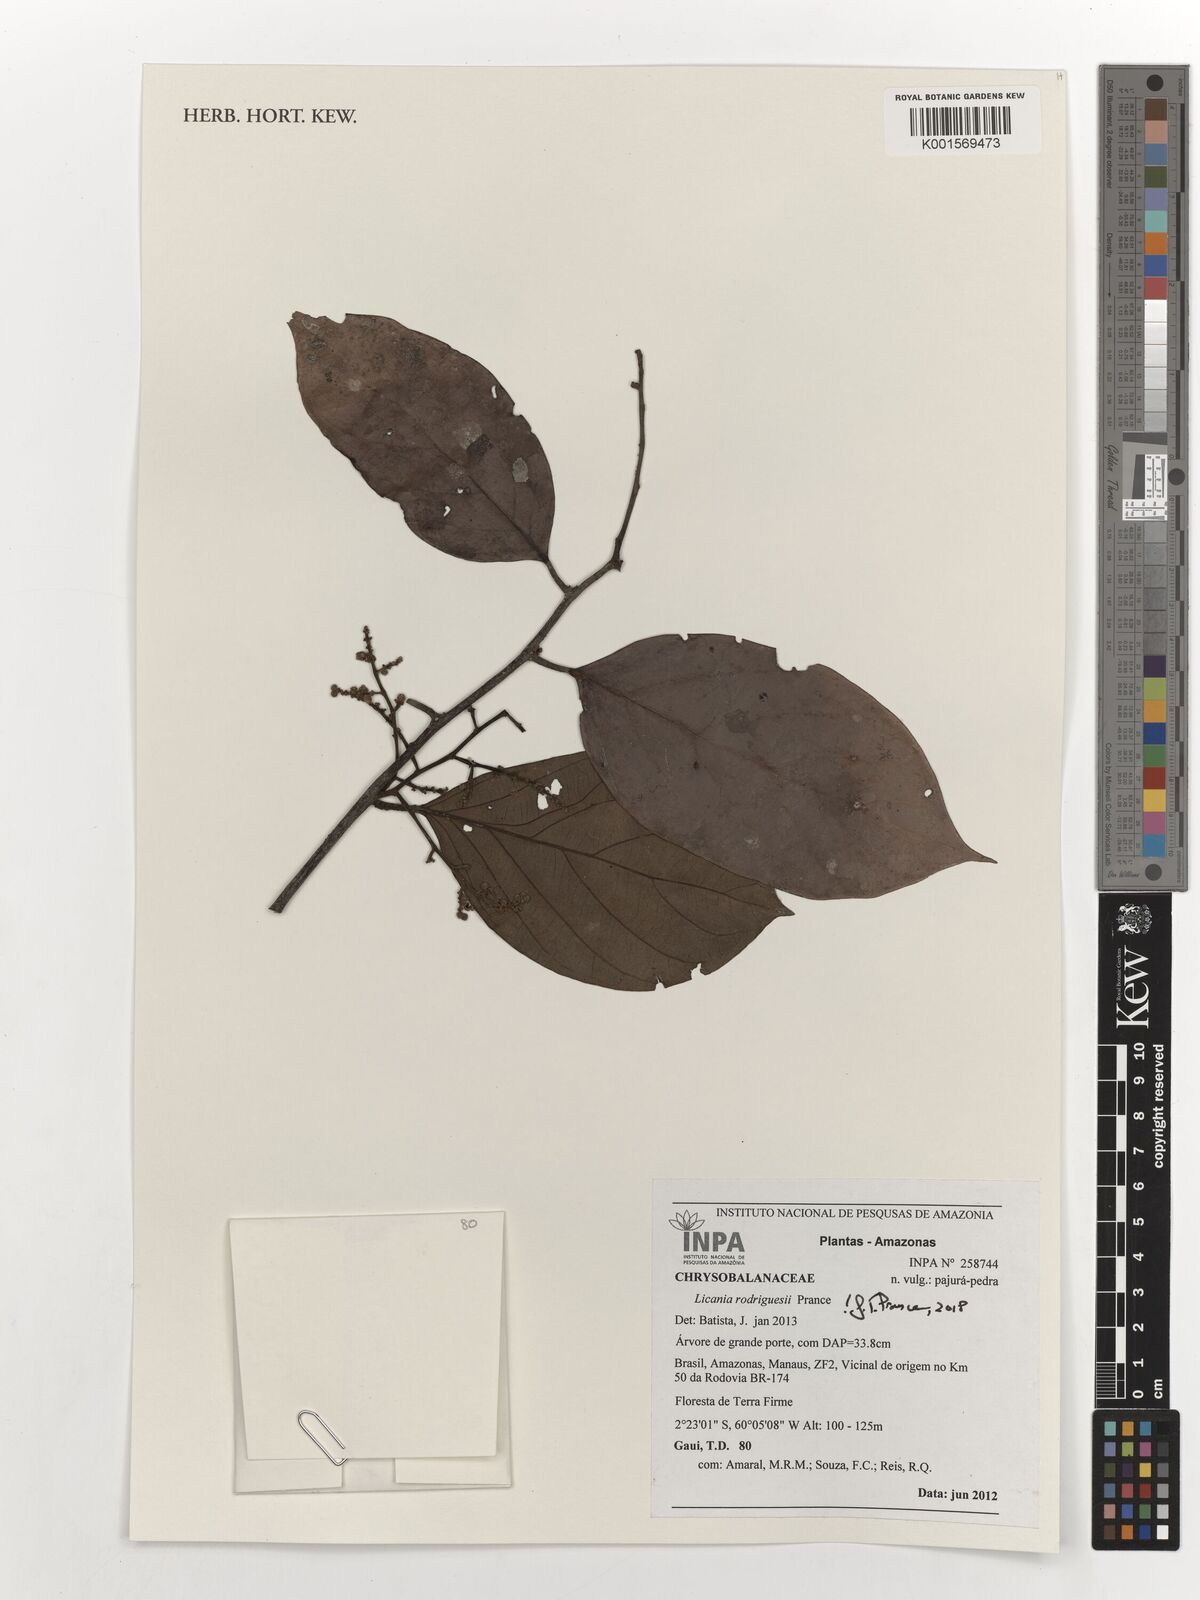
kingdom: Plantae
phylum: Tracheophyta
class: Magnoliopsida
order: Malpighiales
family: Chrysobalanaceae
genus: Licania
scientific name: Licania rodriguesii
